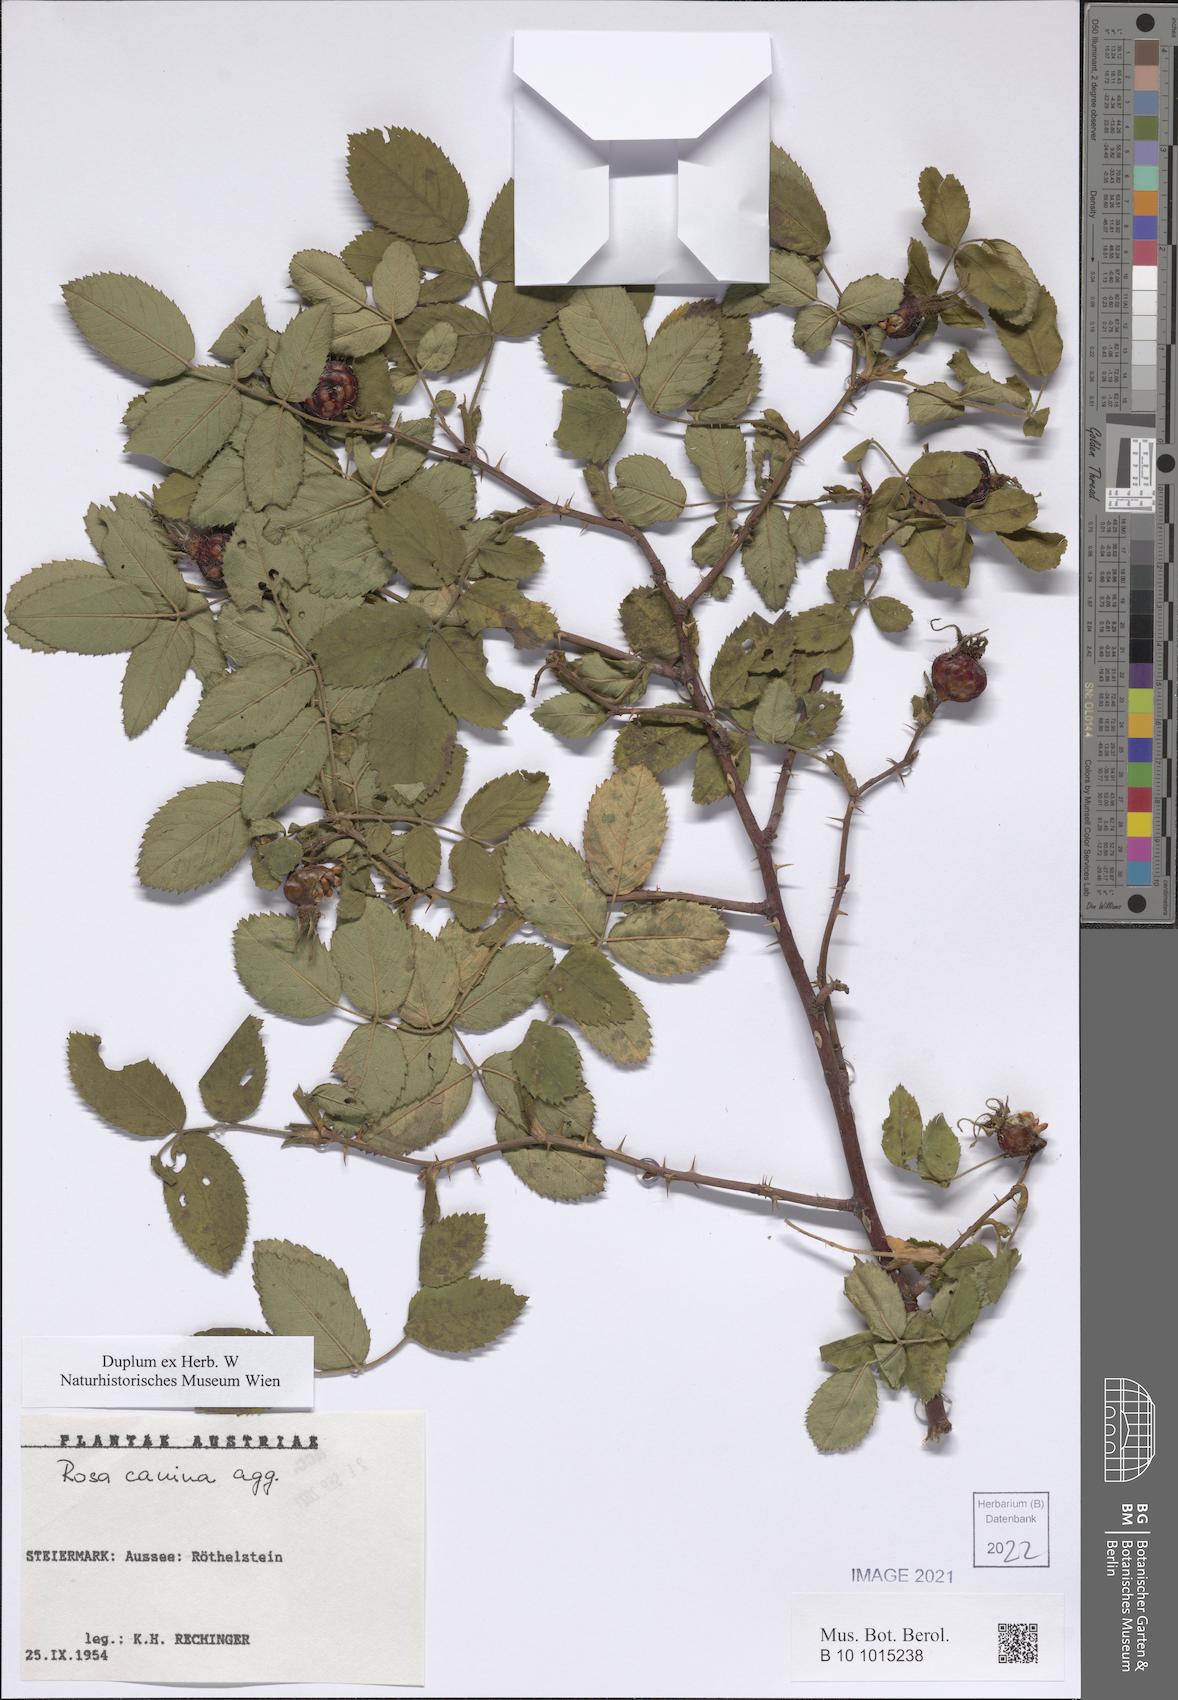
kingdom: Plantae
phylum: Tracheophyta
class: Magnoliopsida
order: Rosales
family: Rosaceae
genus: Rosa
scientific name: Rosa canina
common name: Dog rose
